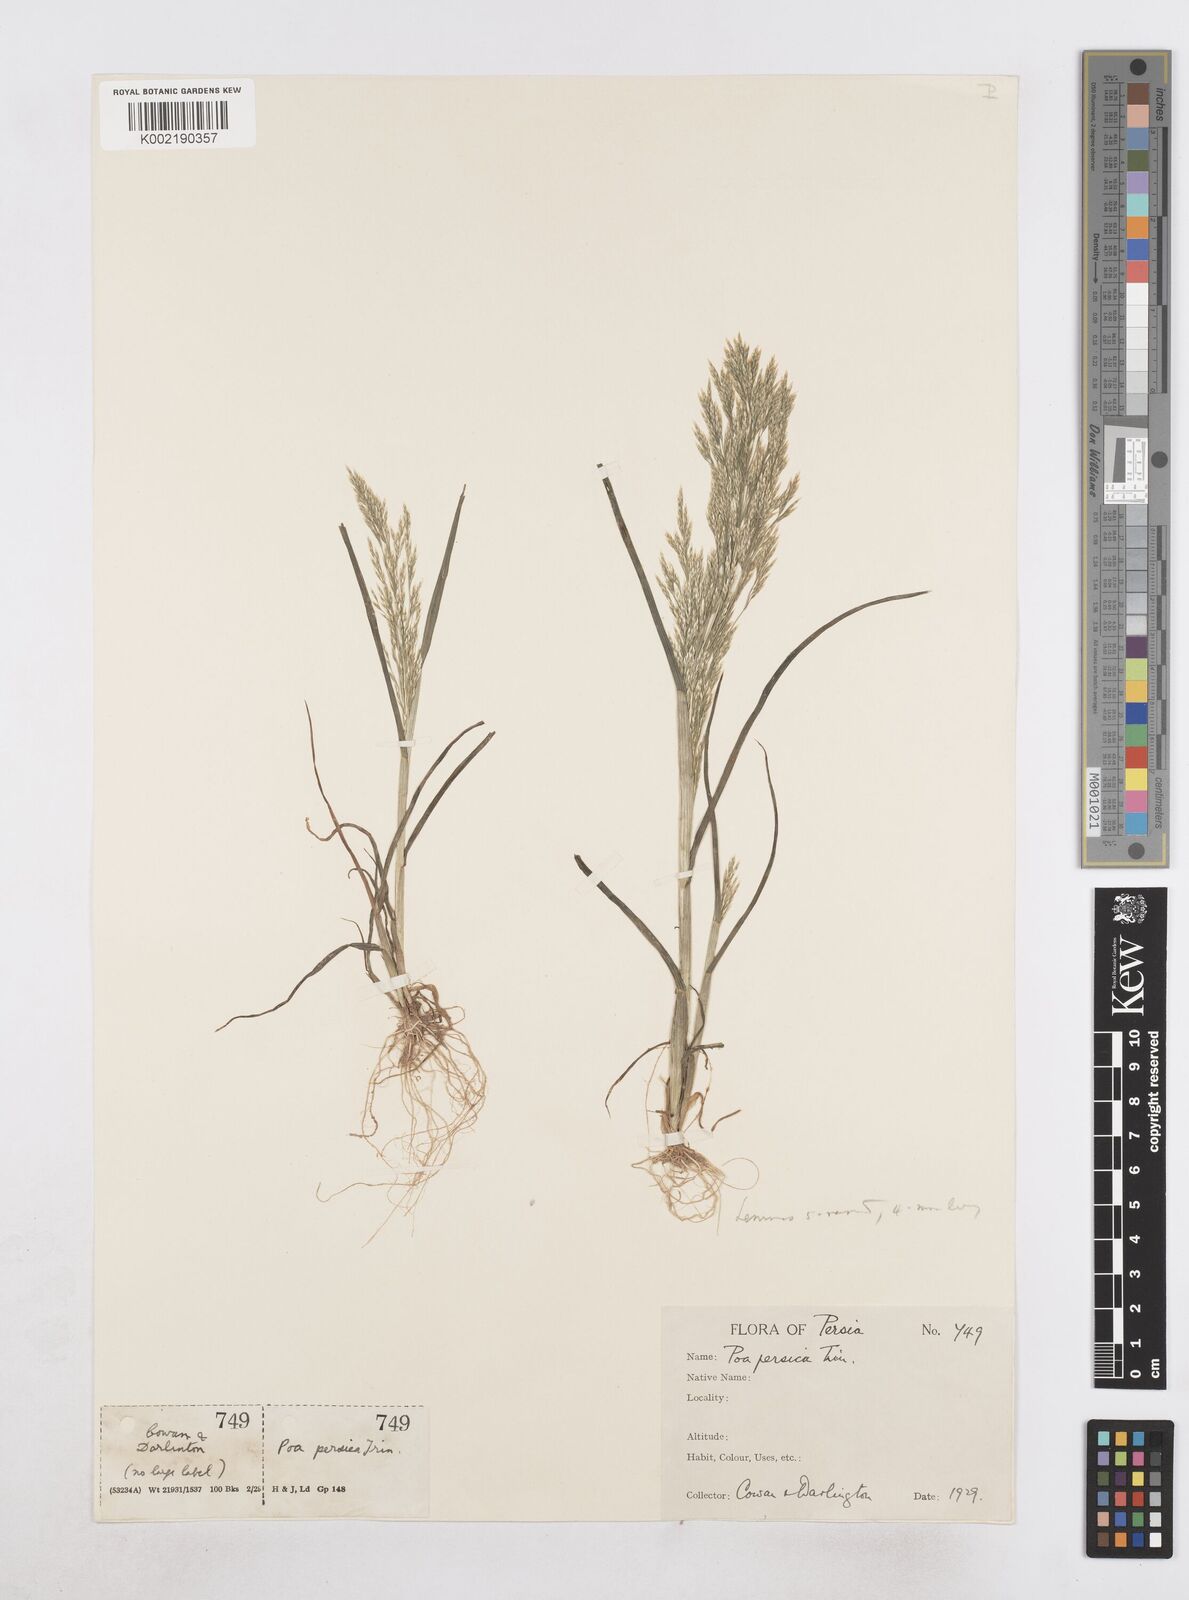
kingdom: Plantae
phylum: Tracheophyta
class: Liliopsida
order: Poales
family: Poaceae
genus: Poa
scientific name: Poa persica
